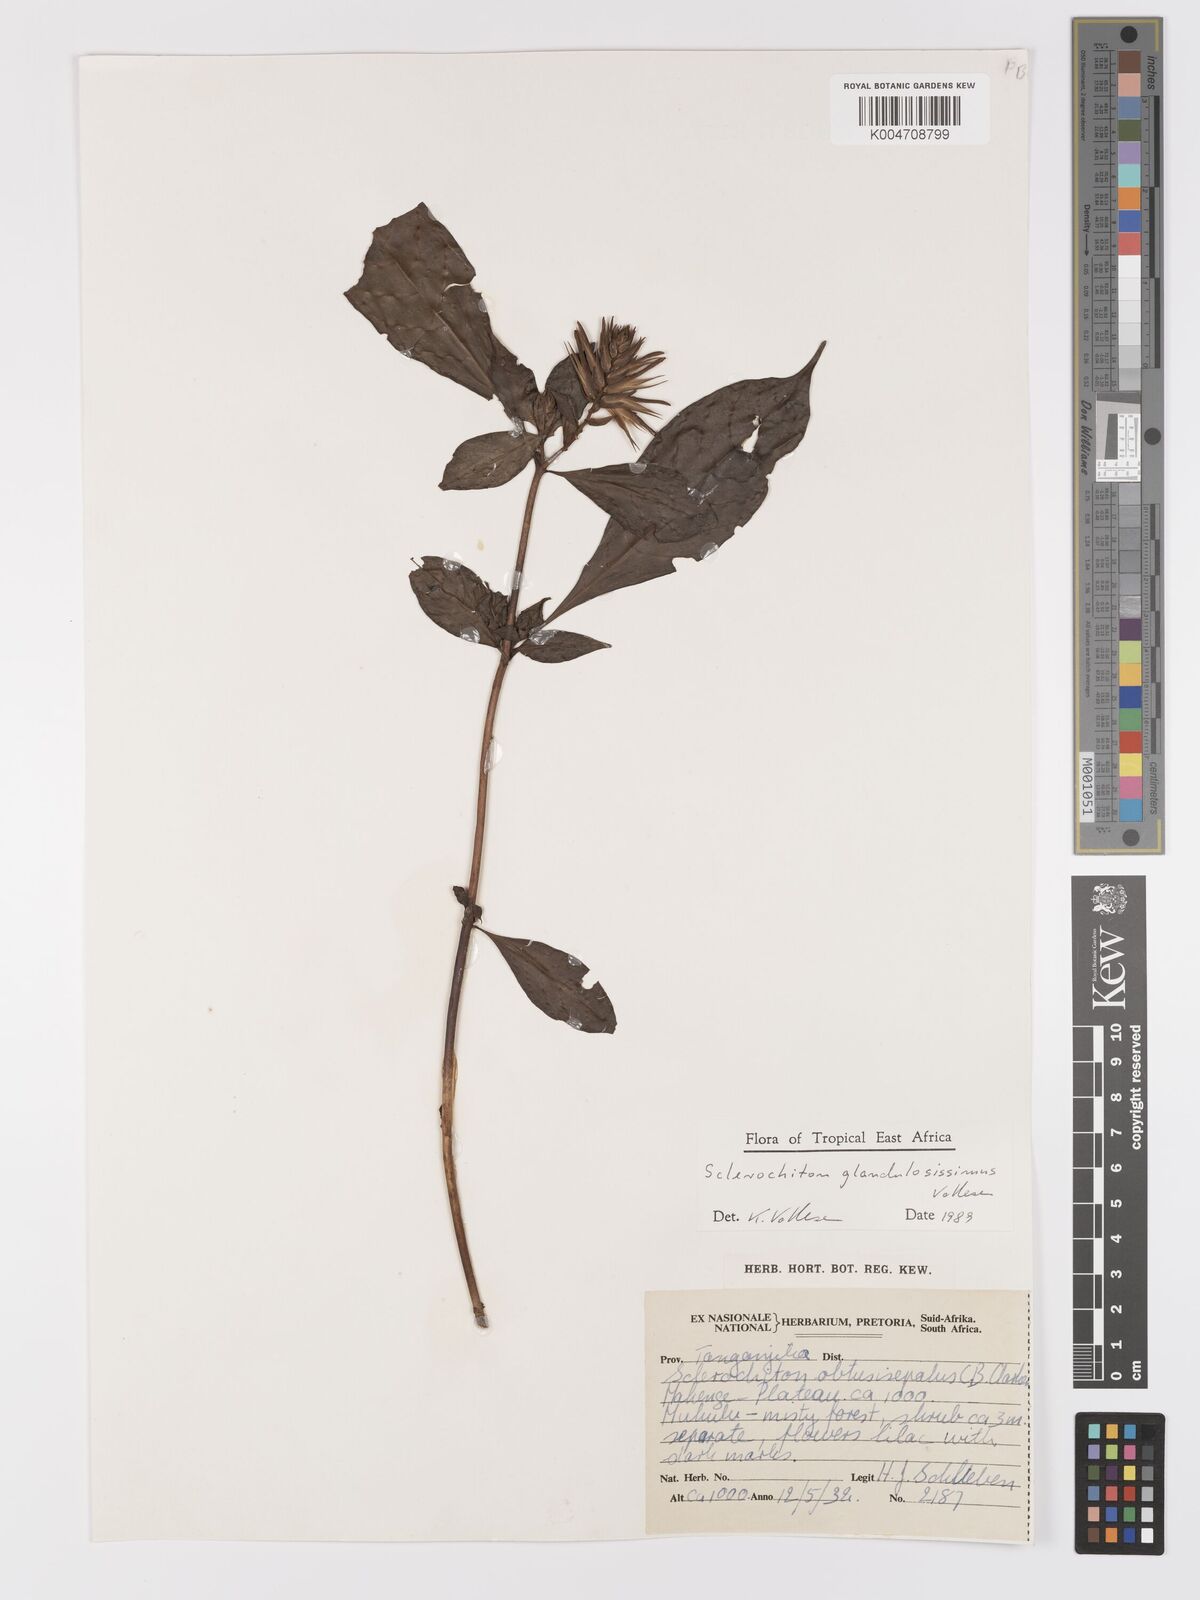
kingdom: Plantae
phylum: Tracheophyta
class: Magnoliopsida
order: Lamiales
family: Acanthaceae
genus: Sclerochiton
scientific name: Sclerochiton glandulosissimus
